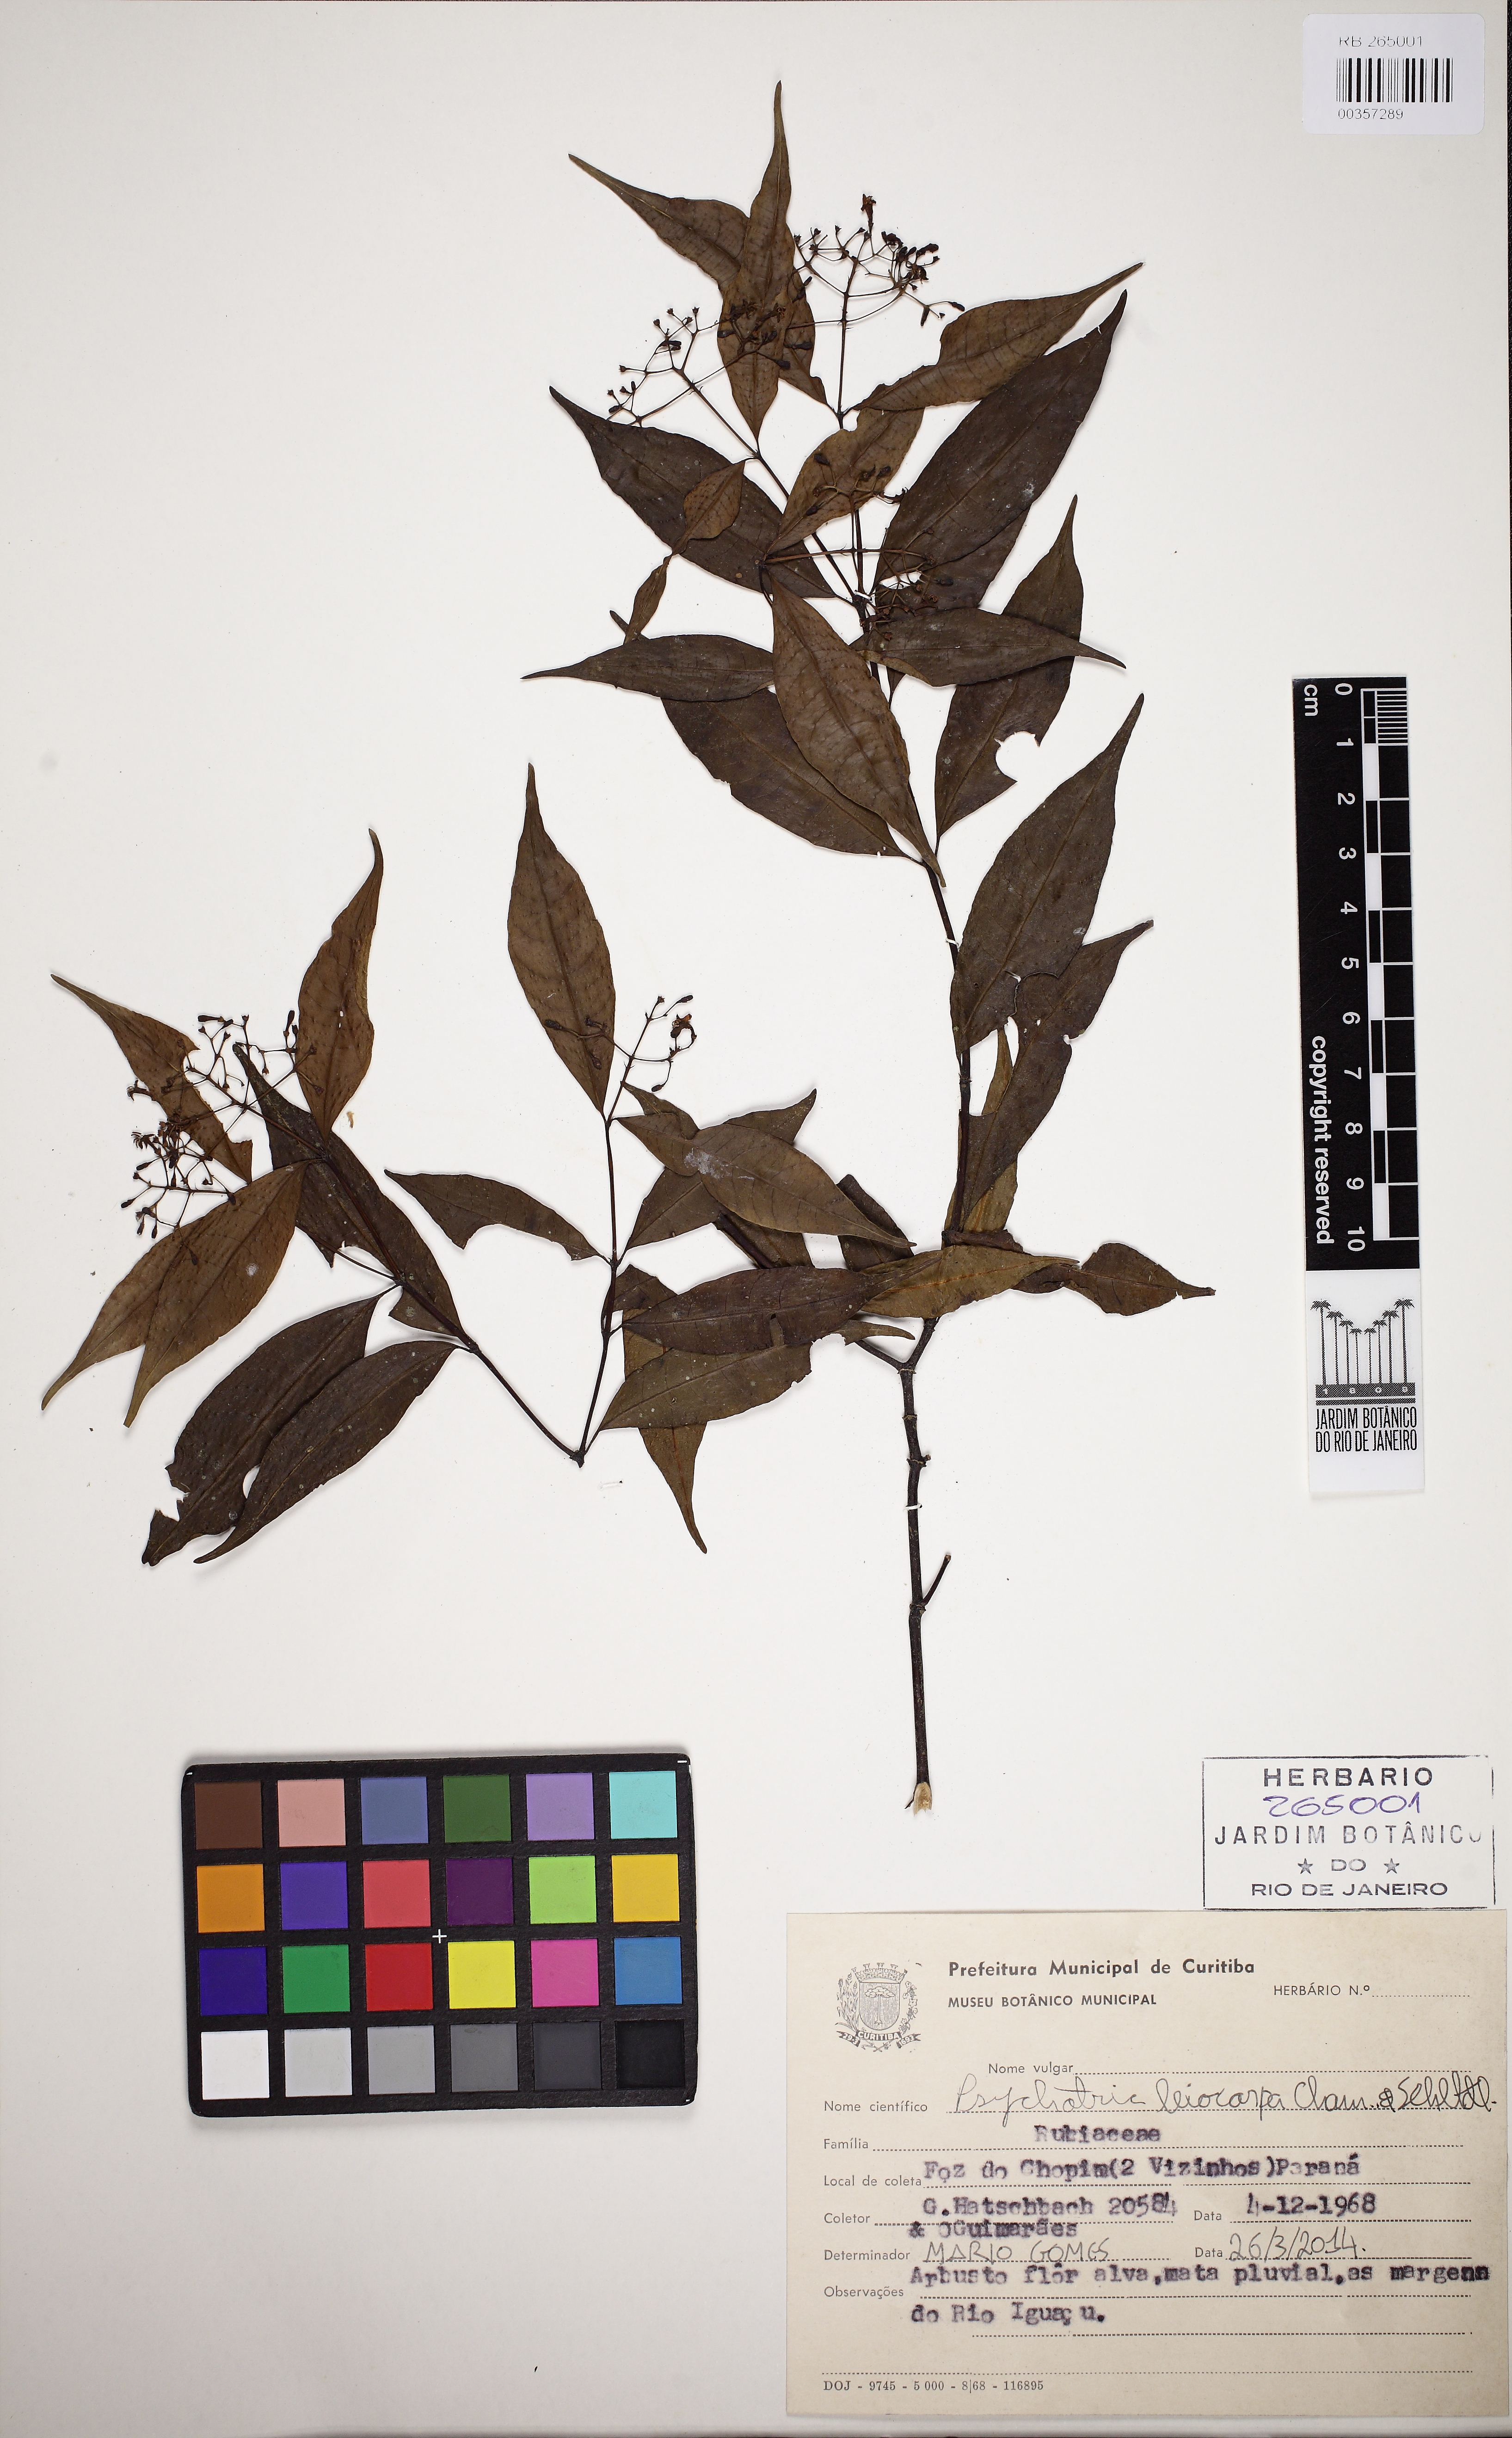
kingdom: Plantae
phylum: Tracheophyta
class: Magnoliopsida
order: Gentianales
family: Rubiaceae
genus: Psychotria
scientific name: Psychotria leiocarpa
